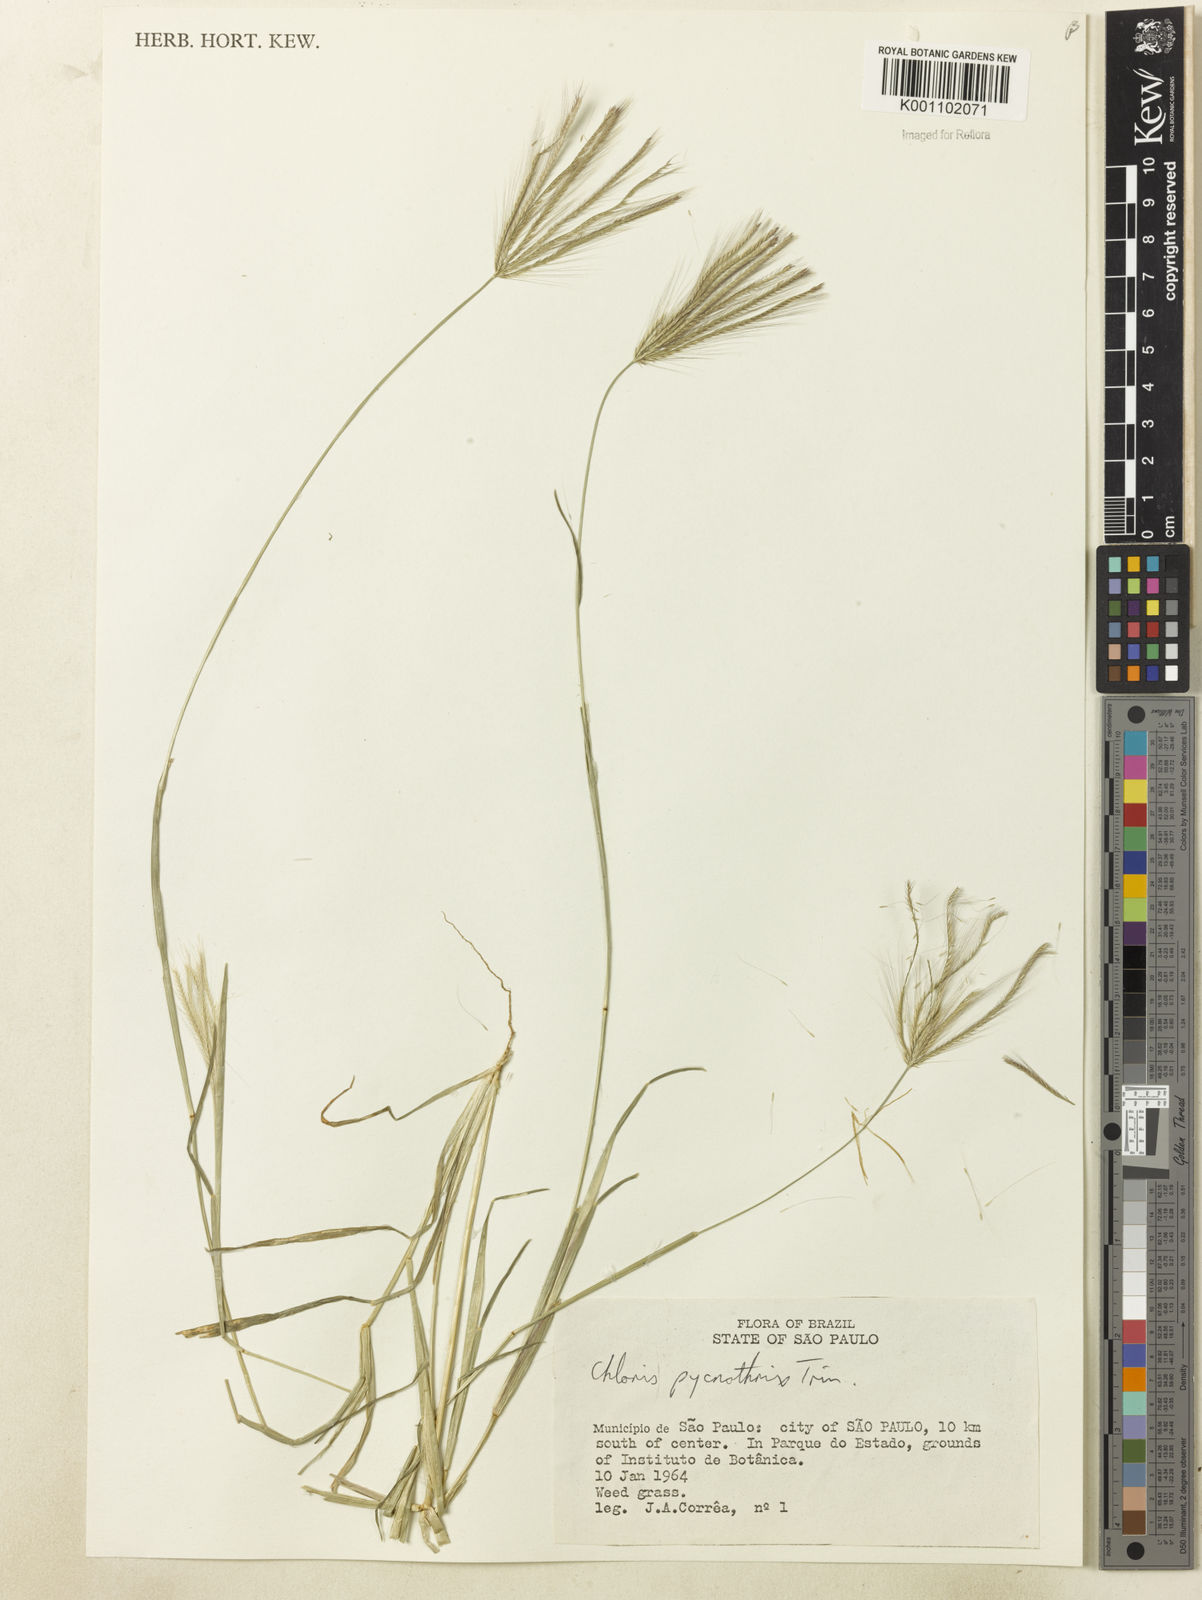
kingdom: Plantae
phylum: Tracheophyta
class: Liliopsida
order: Poales
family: Poaceae
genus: Chloris
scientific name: Chloris pycnothrix
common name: Spiderweb chloris
